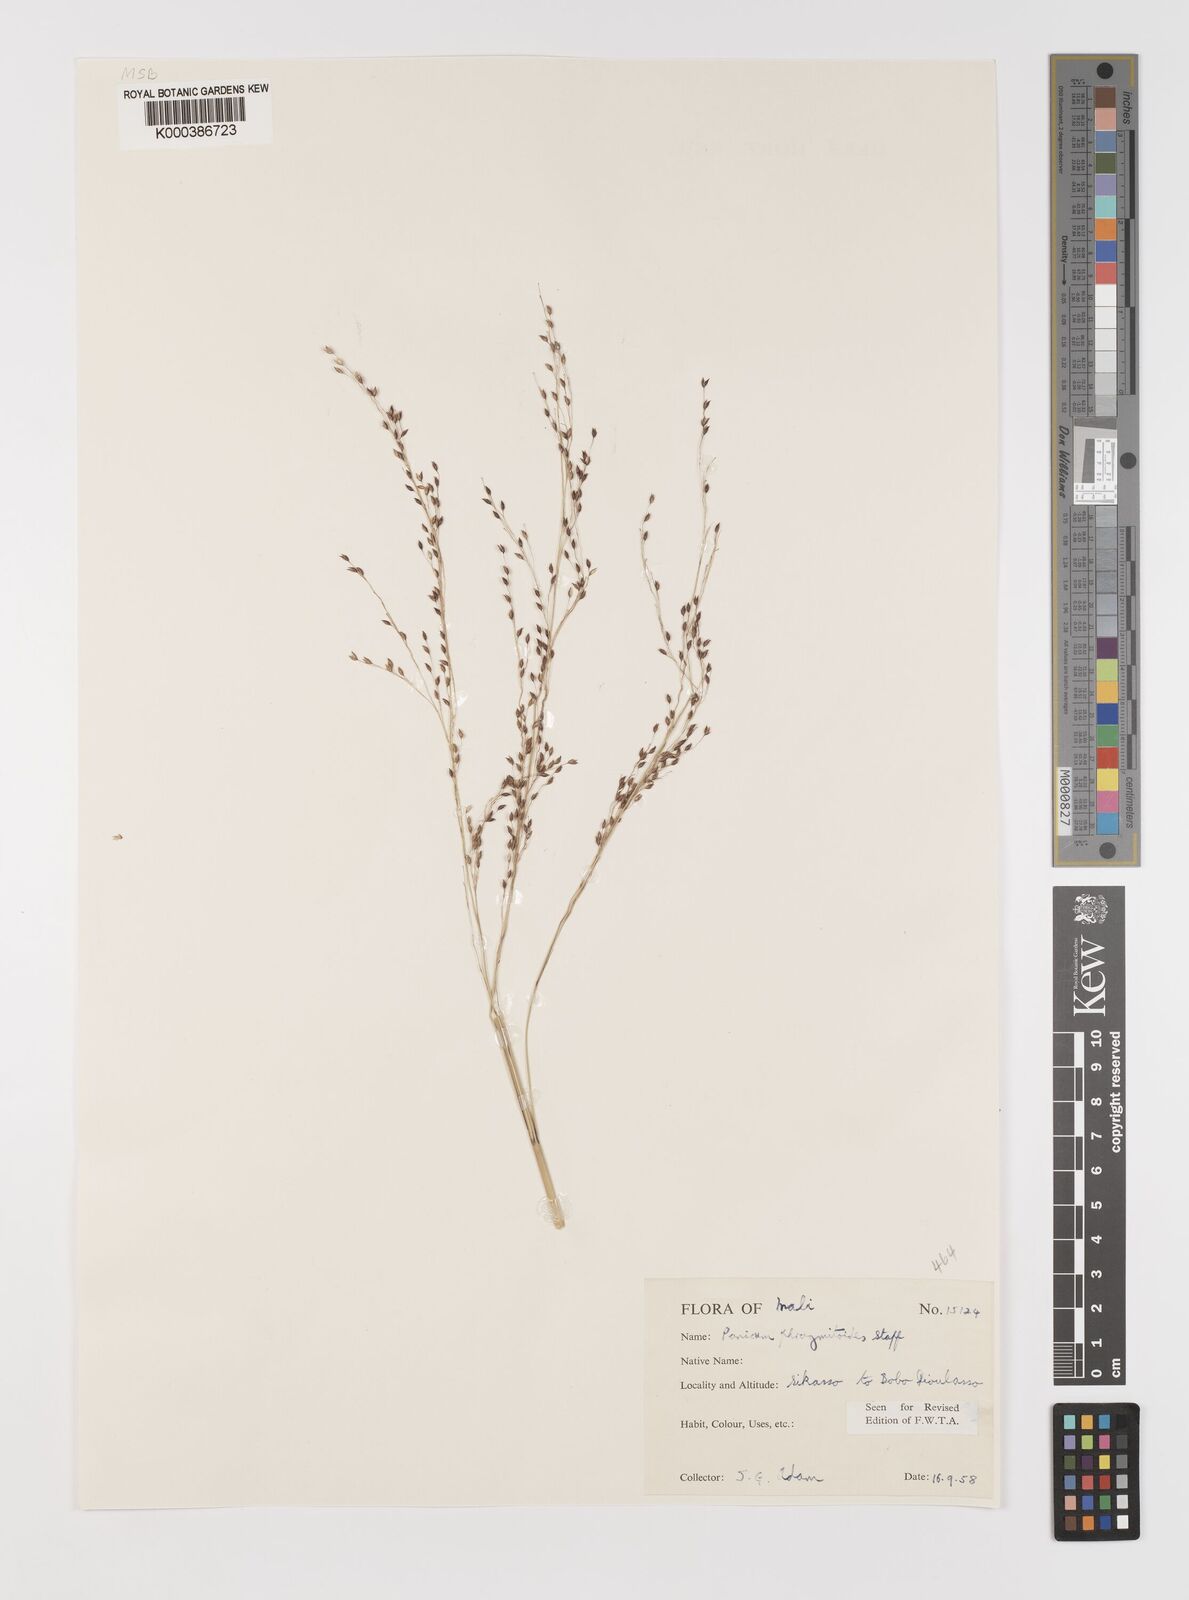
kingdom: Plantae
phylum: Tracheophyta
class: Liliopsida
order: Poales
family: Poaceae
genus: Panicum
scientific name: Panicum phragmitoides
